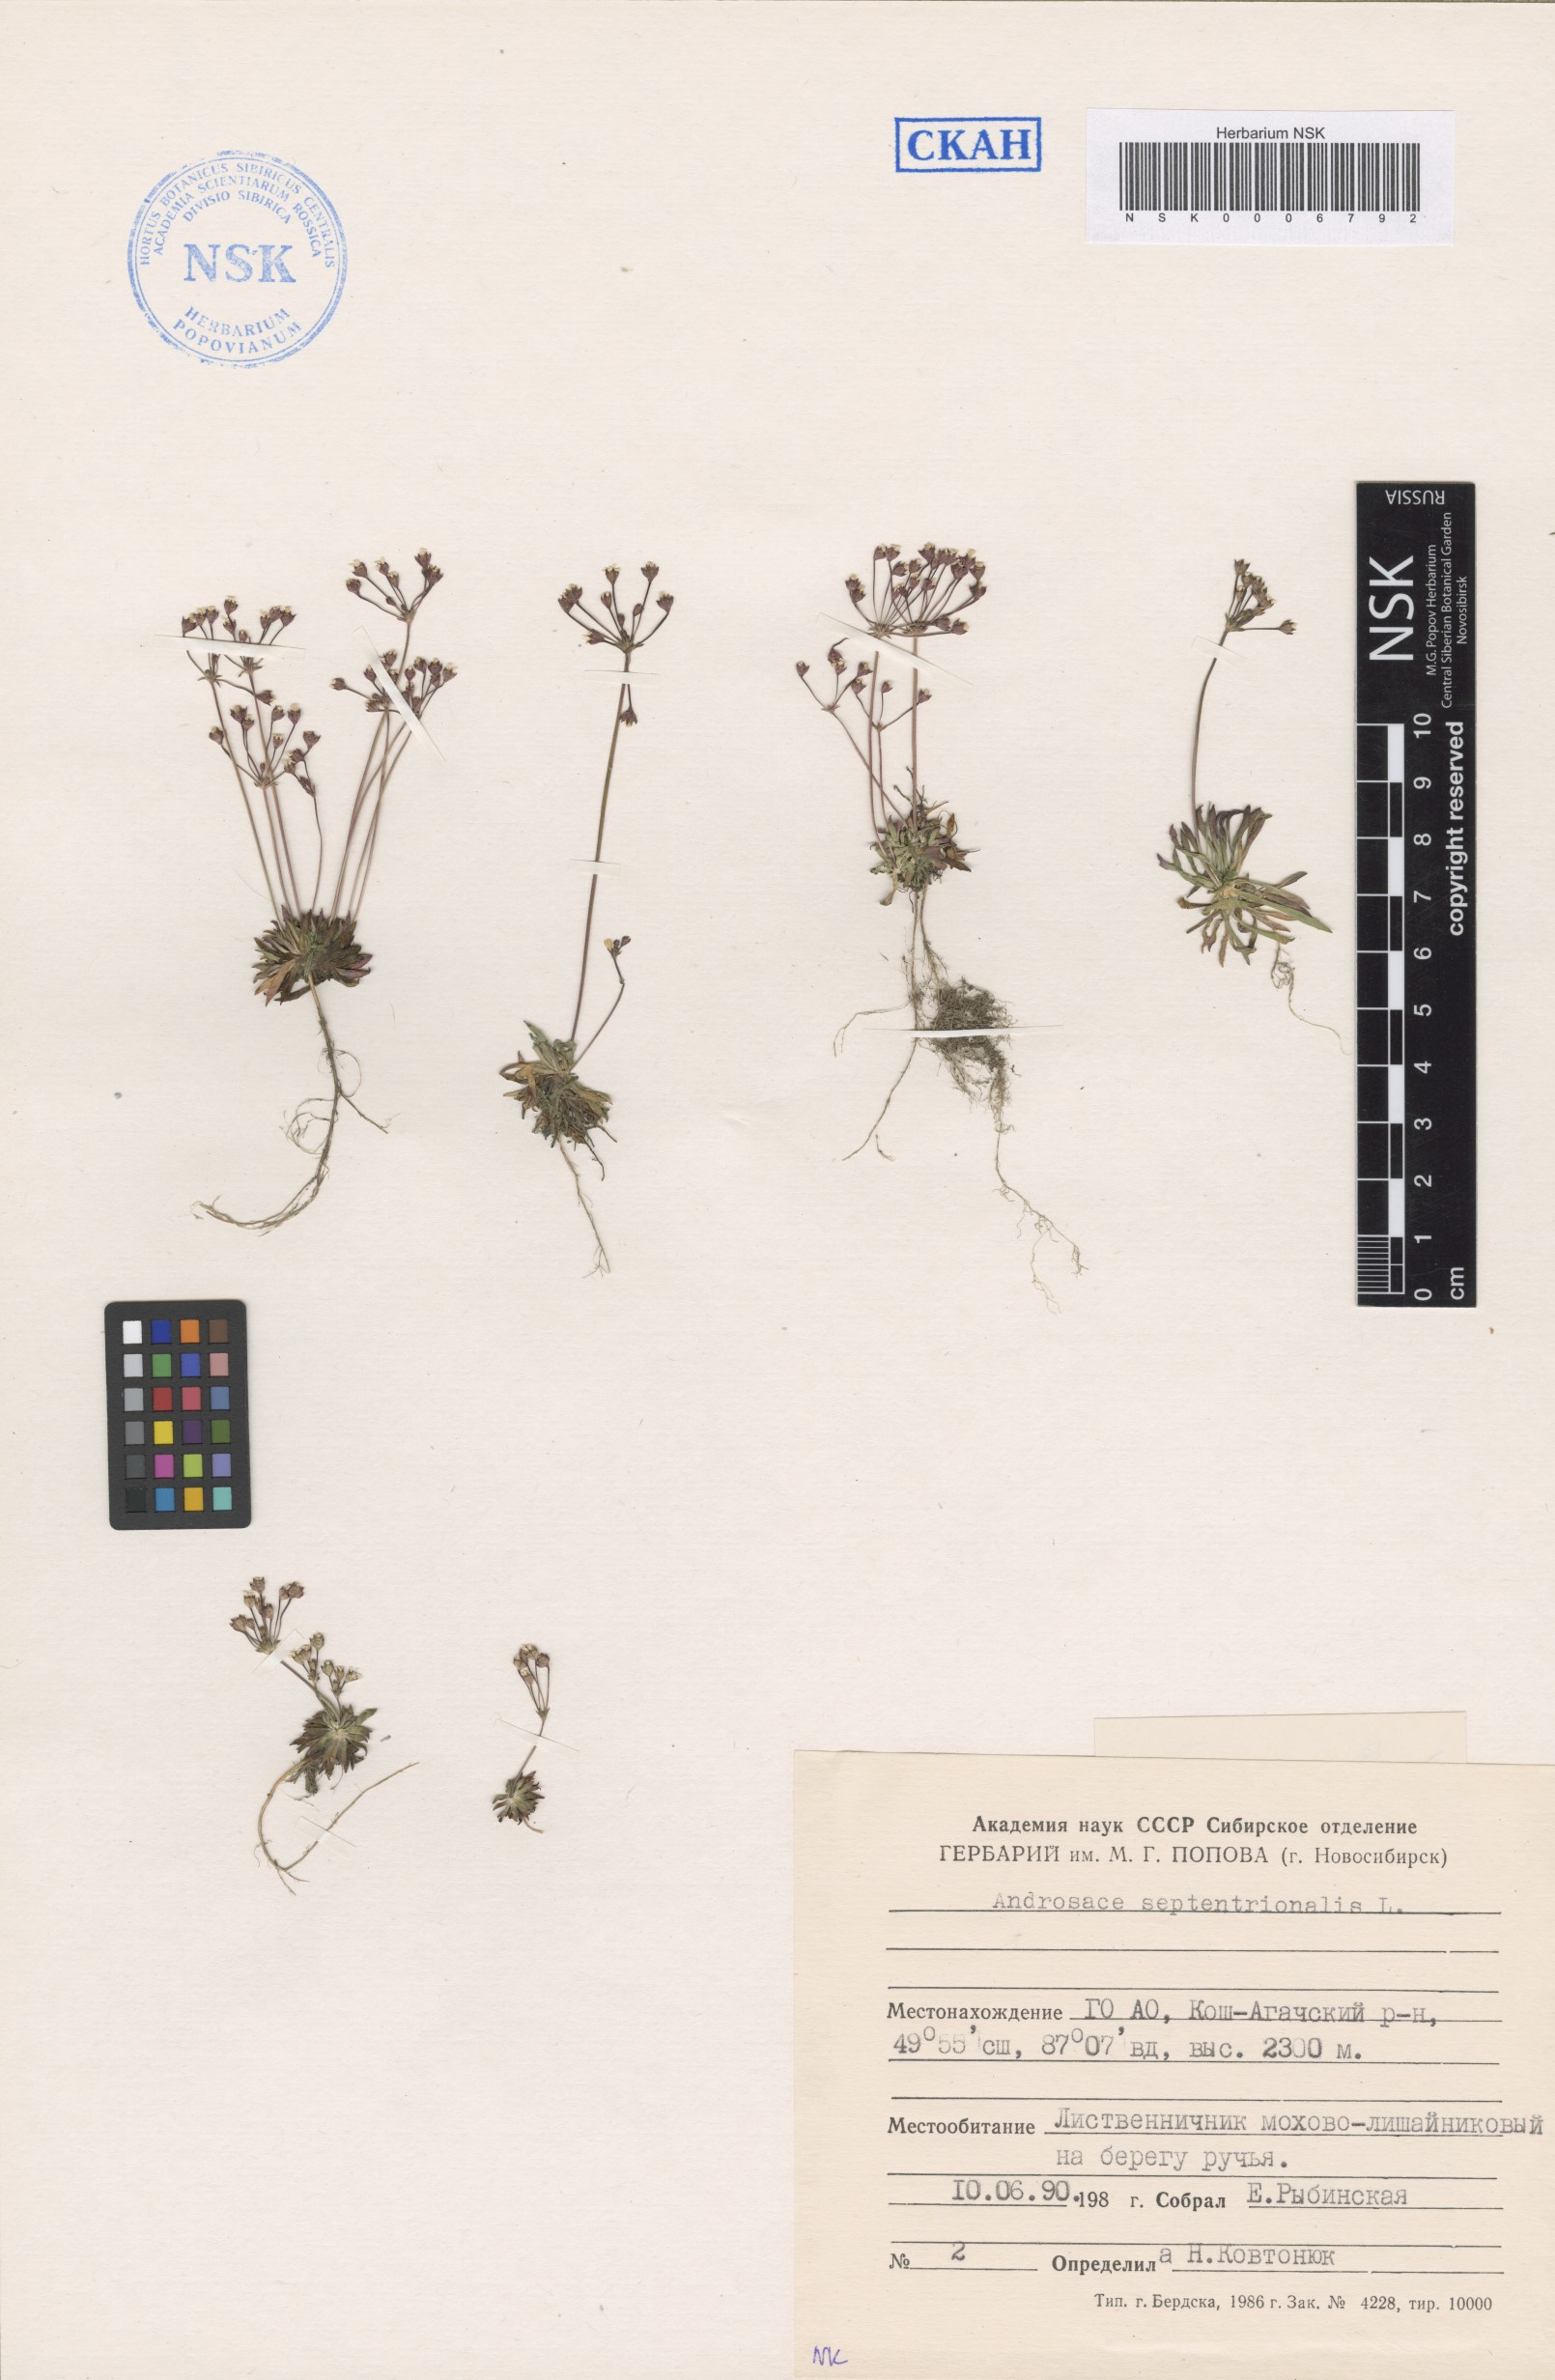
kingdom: Plantae
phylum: Tracheophyta
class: Magnoliopsida
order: Ericales
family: Primulaceae
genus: Androsace
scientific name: Androsace septentrionalis
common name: Hairy northern fairy-candelabra
